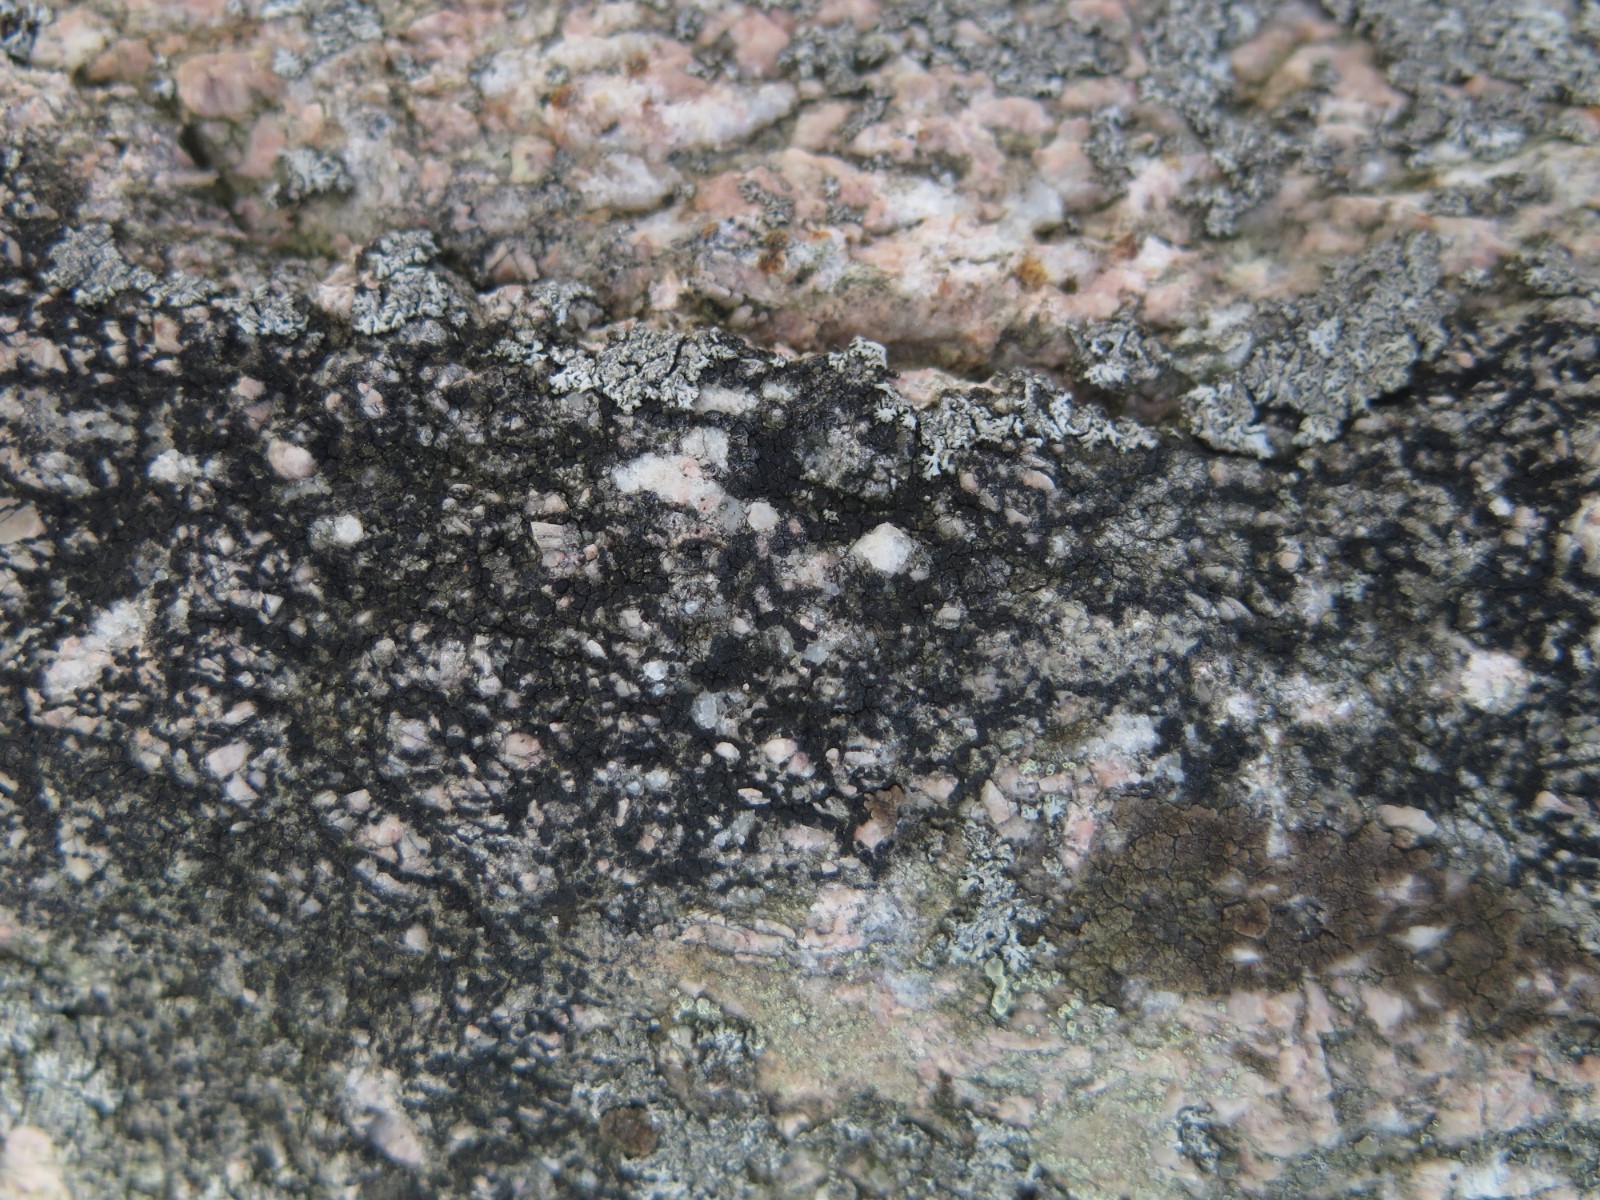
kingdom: Fungi
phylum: Ascomycota
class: Lecanoromycetes
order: Acarosporales
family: Acarosporaceae
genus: Acarospora
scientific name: Acarospora privigna
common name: sort foldekantlav
